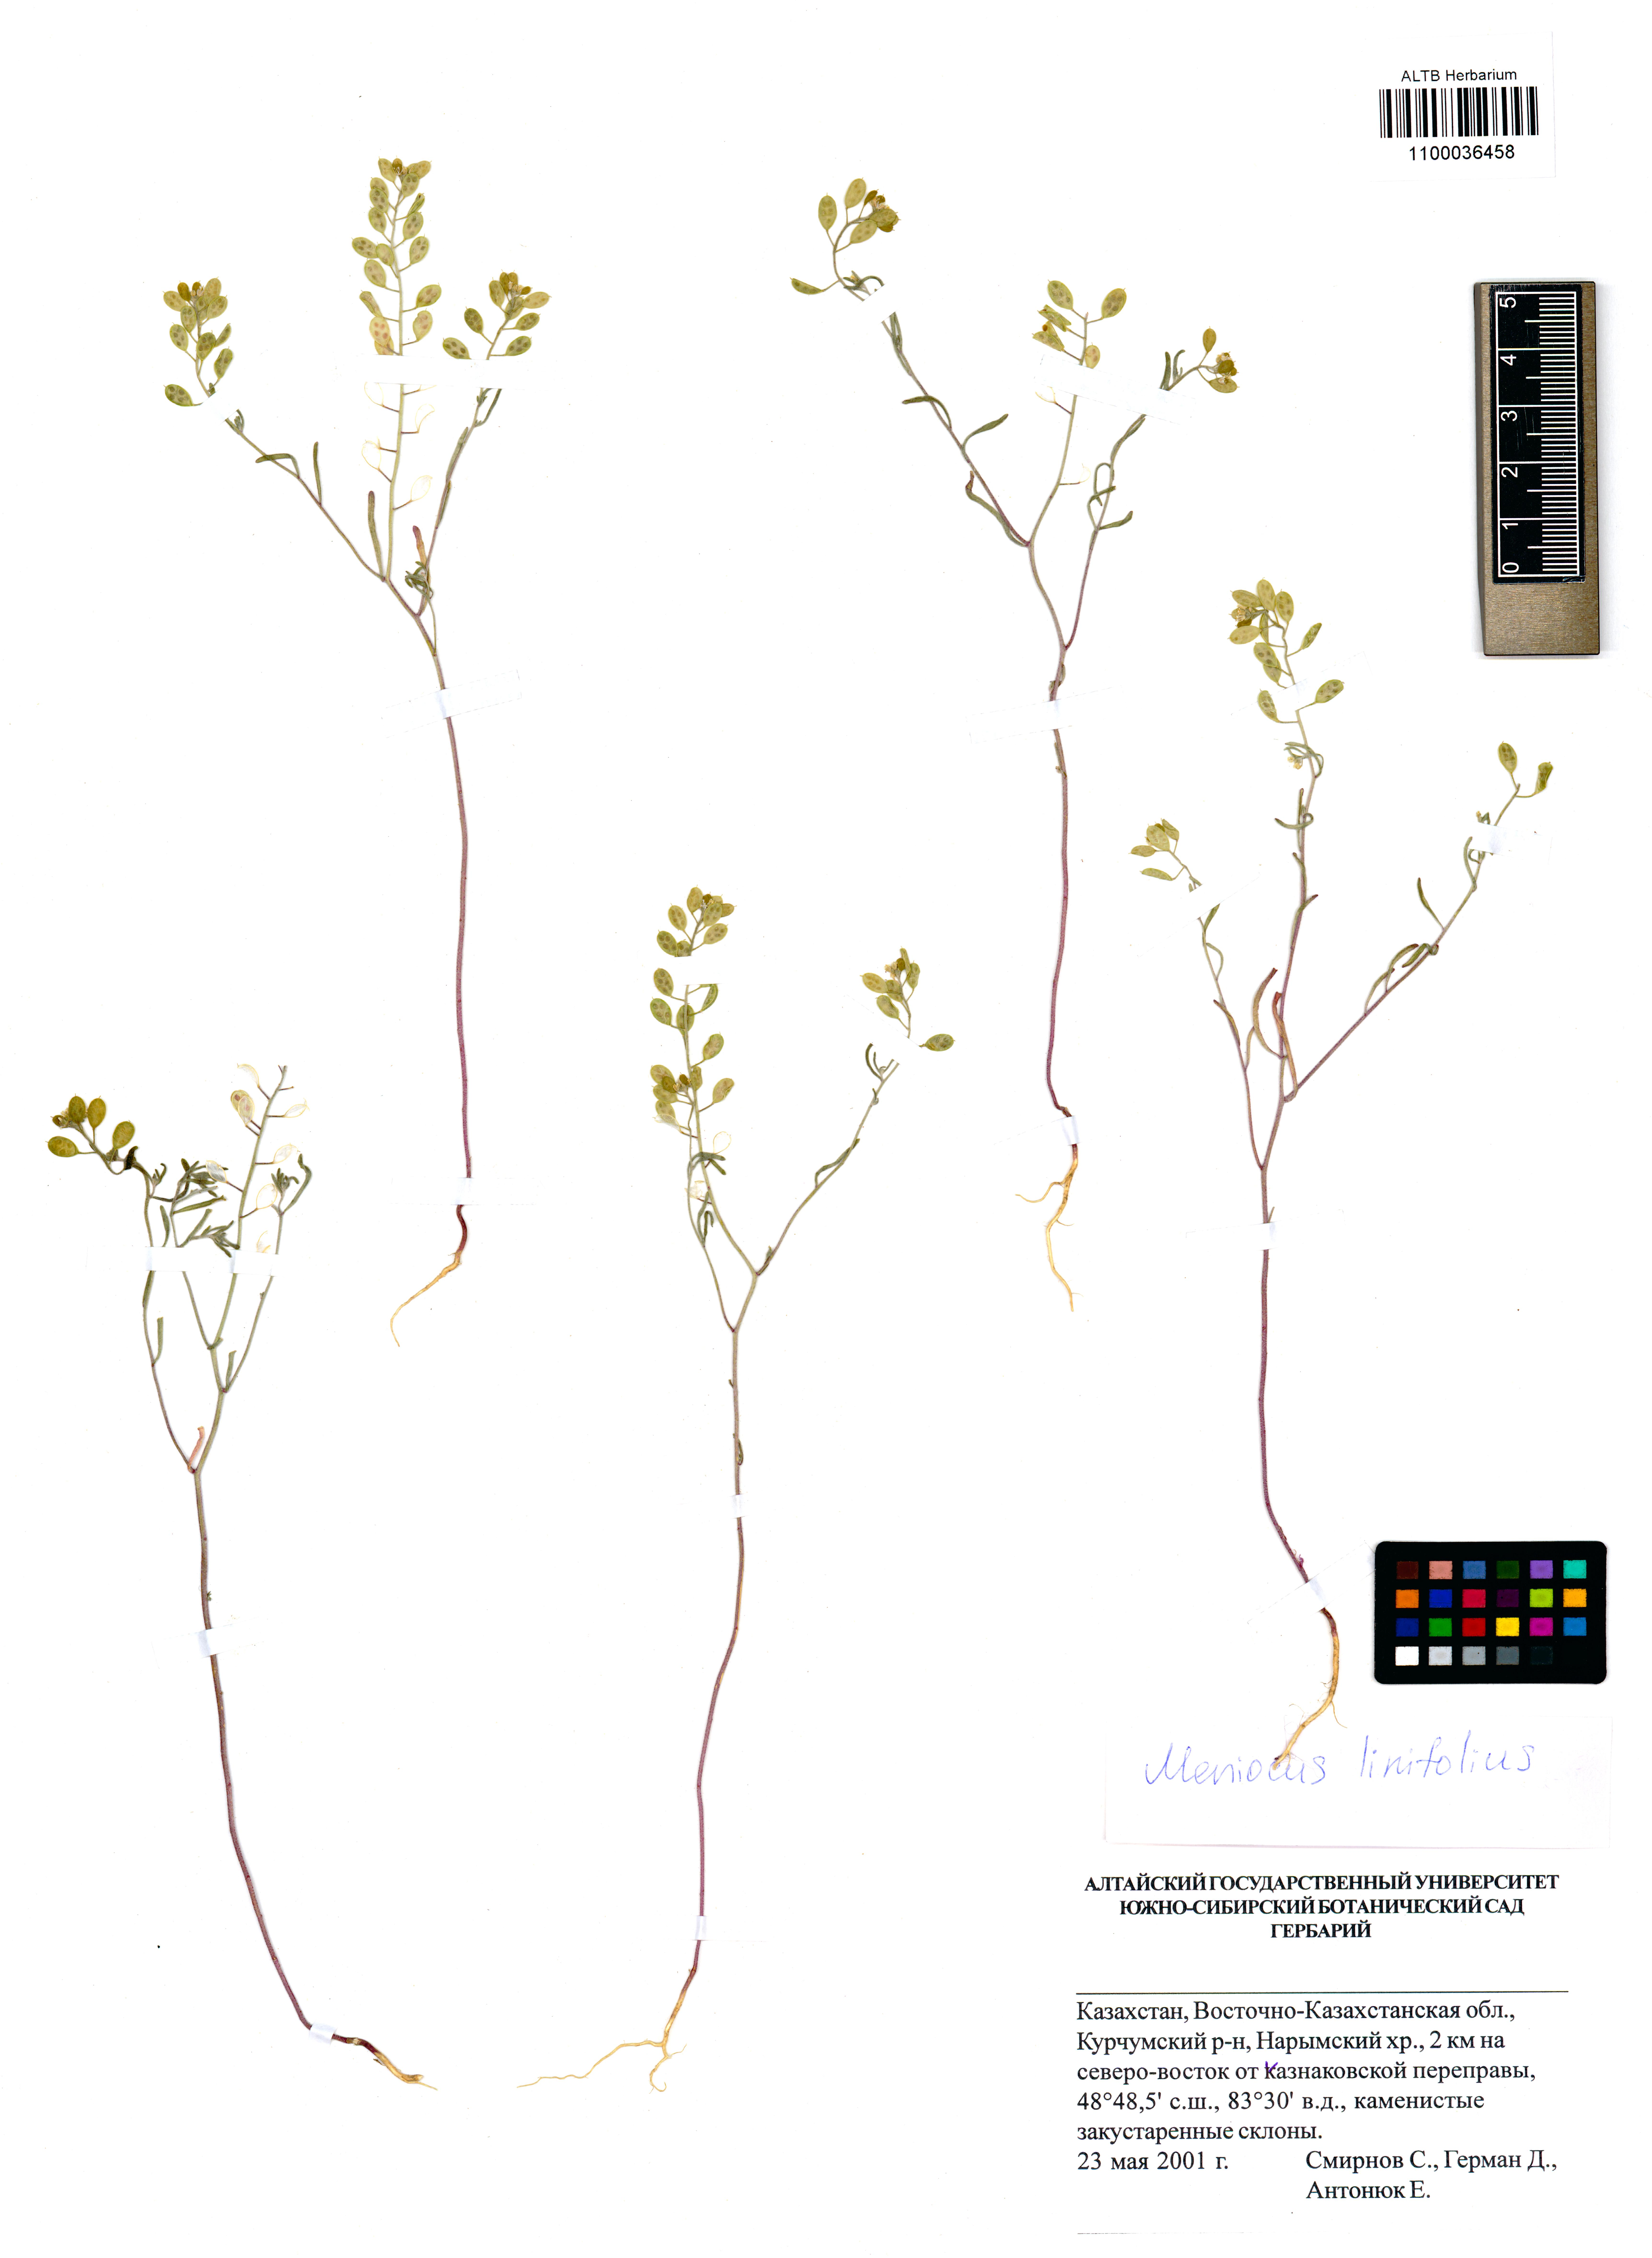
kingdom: Plantae
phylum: Tracheophyta
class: Magnoliopsida
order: Brassicales
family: Brassicaceae
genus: Meniocus
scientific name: Meniocus linifolius
